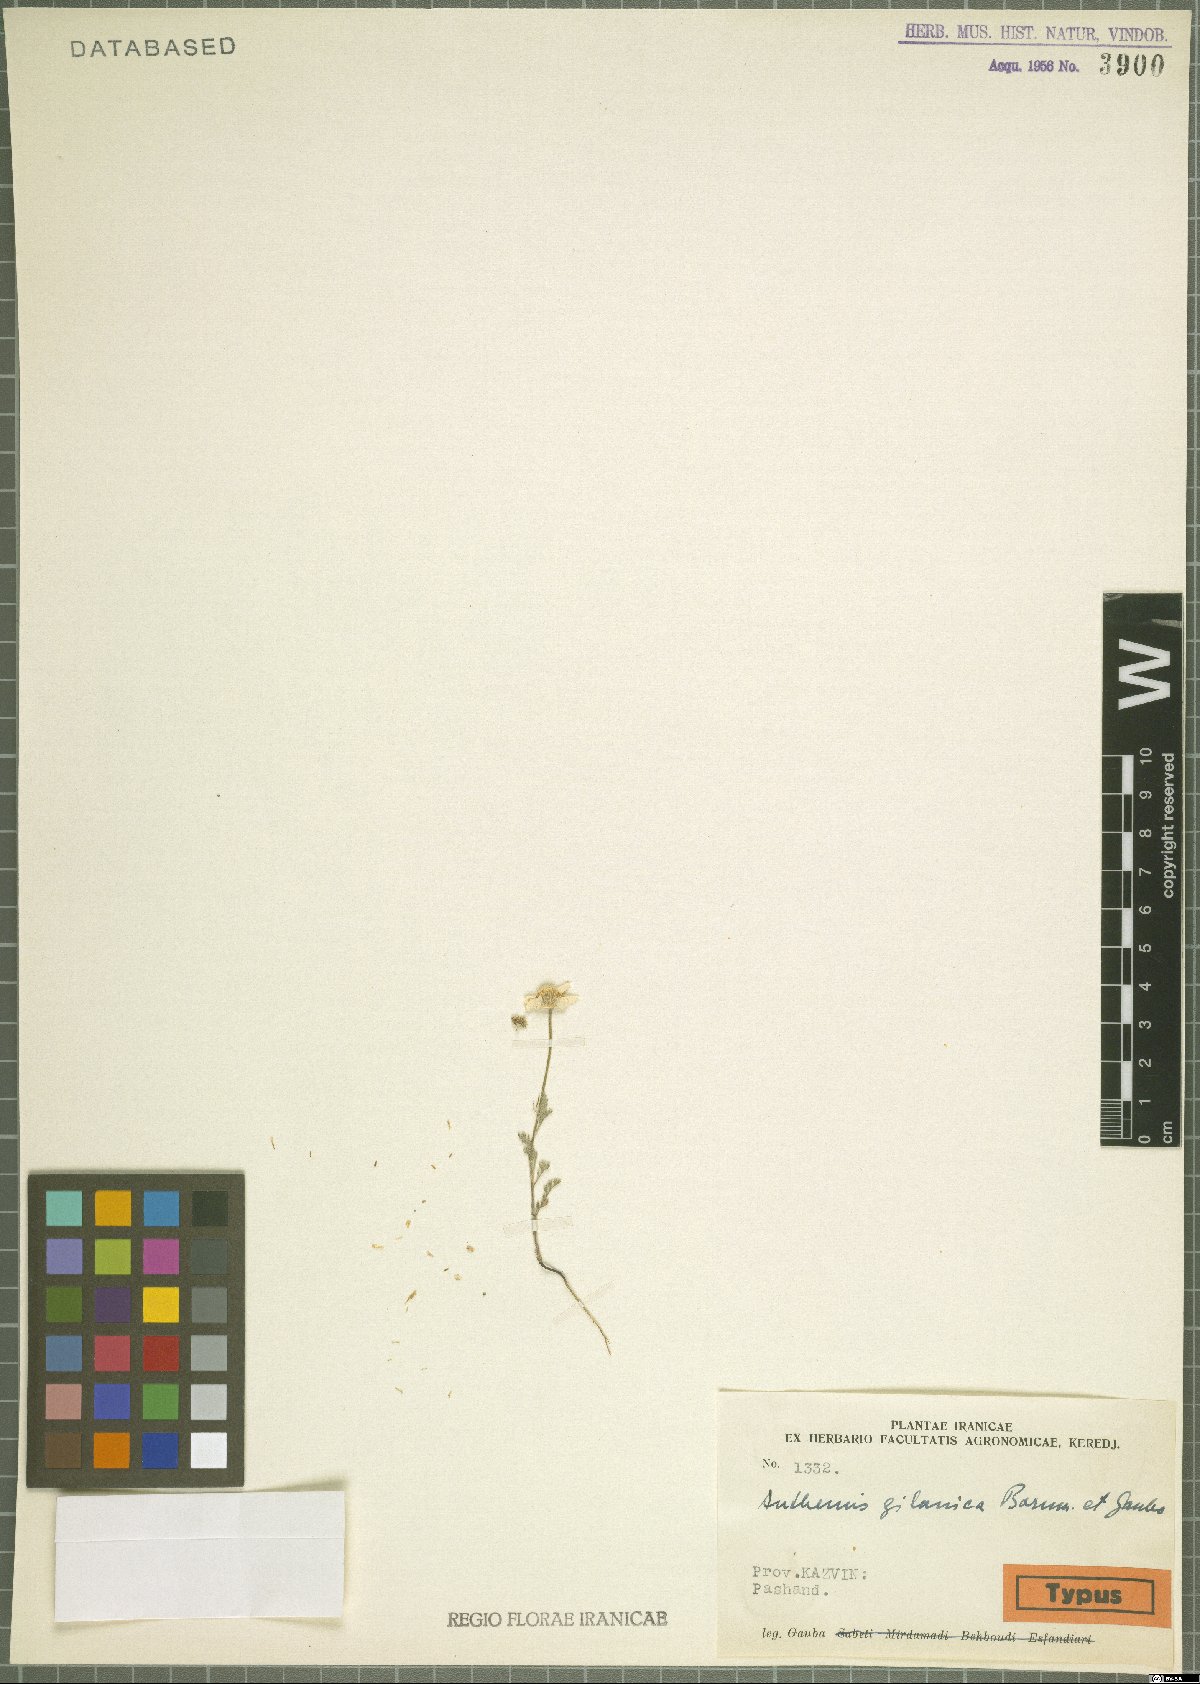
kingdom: Plantae
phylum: Tracheophyta
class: Magnoliopsida
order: Asterales
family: Asteraceae
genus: Anthemis
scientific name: Anthemis gilanica
